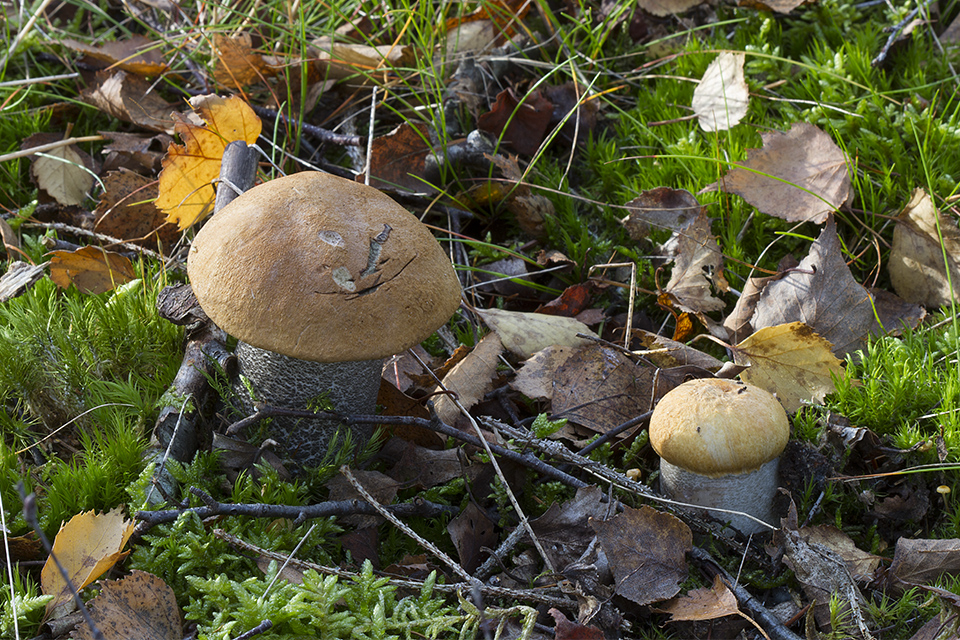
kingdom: Fungi
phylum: Basidiomycota
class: Agaricomycetes
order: Boletales
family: Boletaceae
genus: Leccinum
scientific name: Leccinum versipelle
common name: orange skælrørhat
